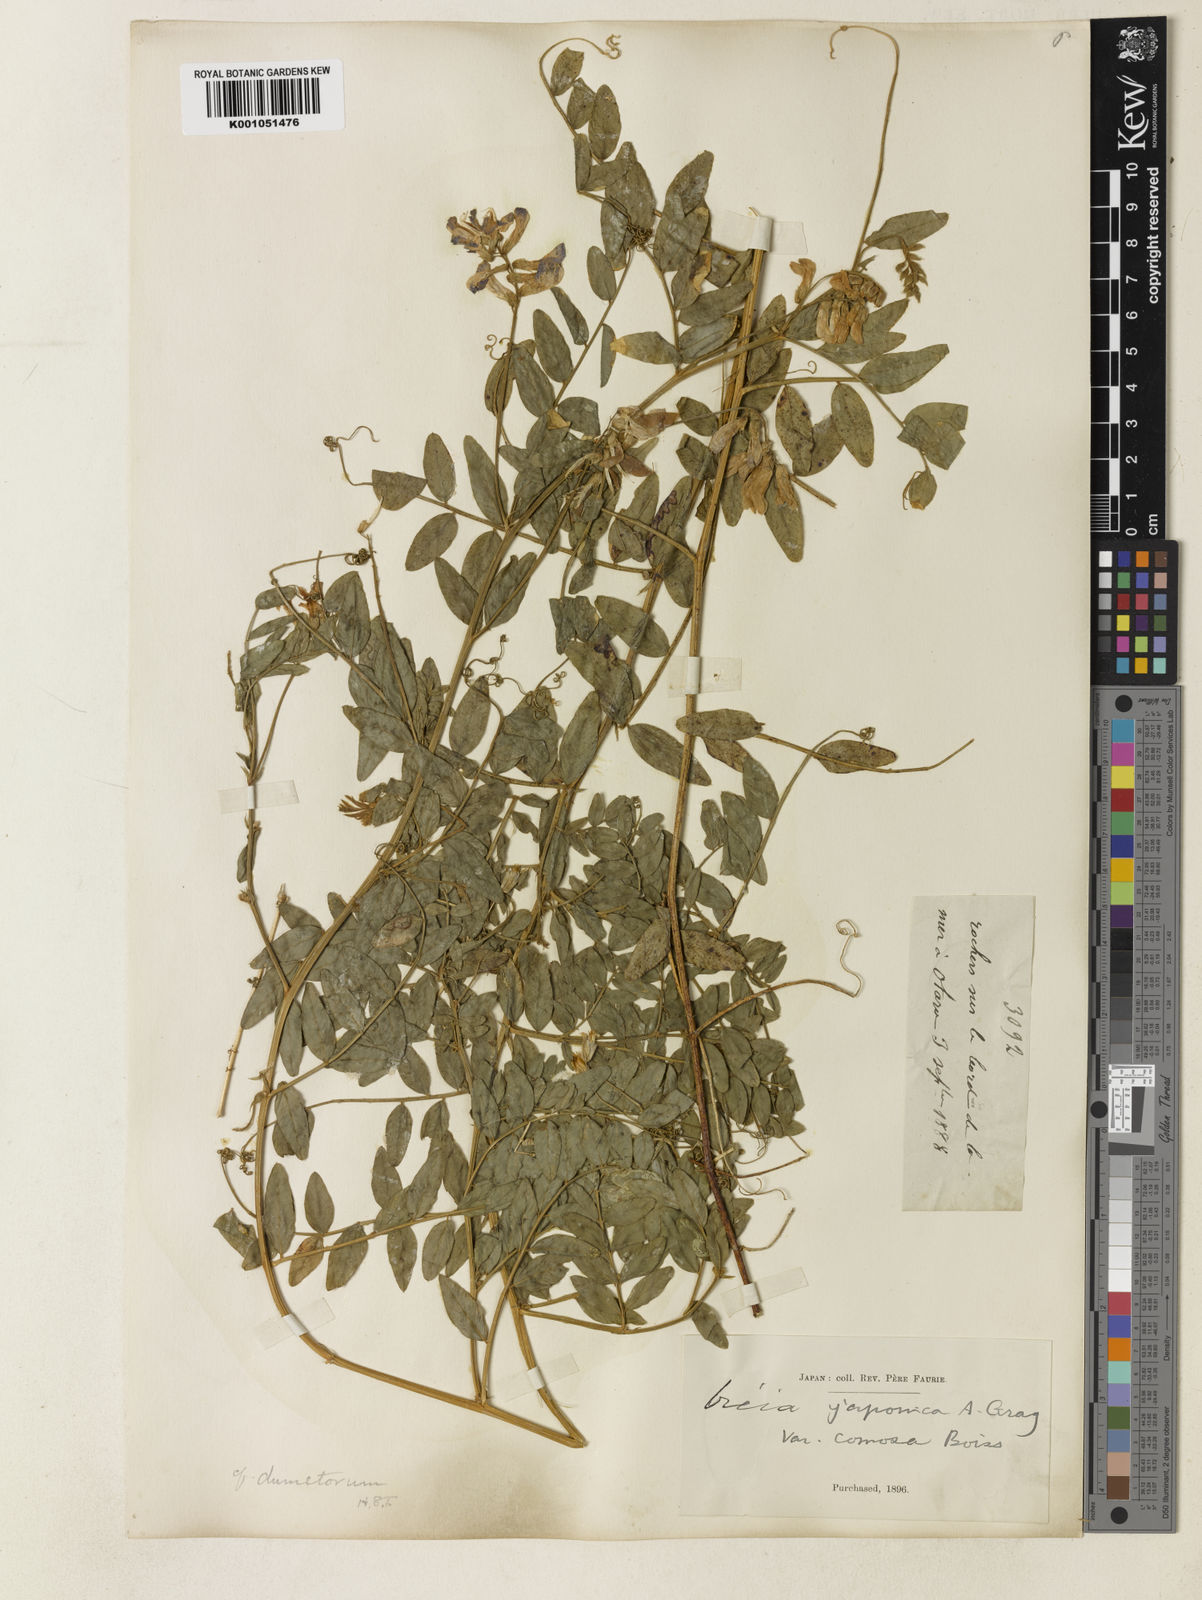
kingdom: Plantae
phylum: Tracheophyta
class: Magnoliopsida
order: Fabales
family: Fabaceae
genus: Vicia
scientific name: Vicia japonica
